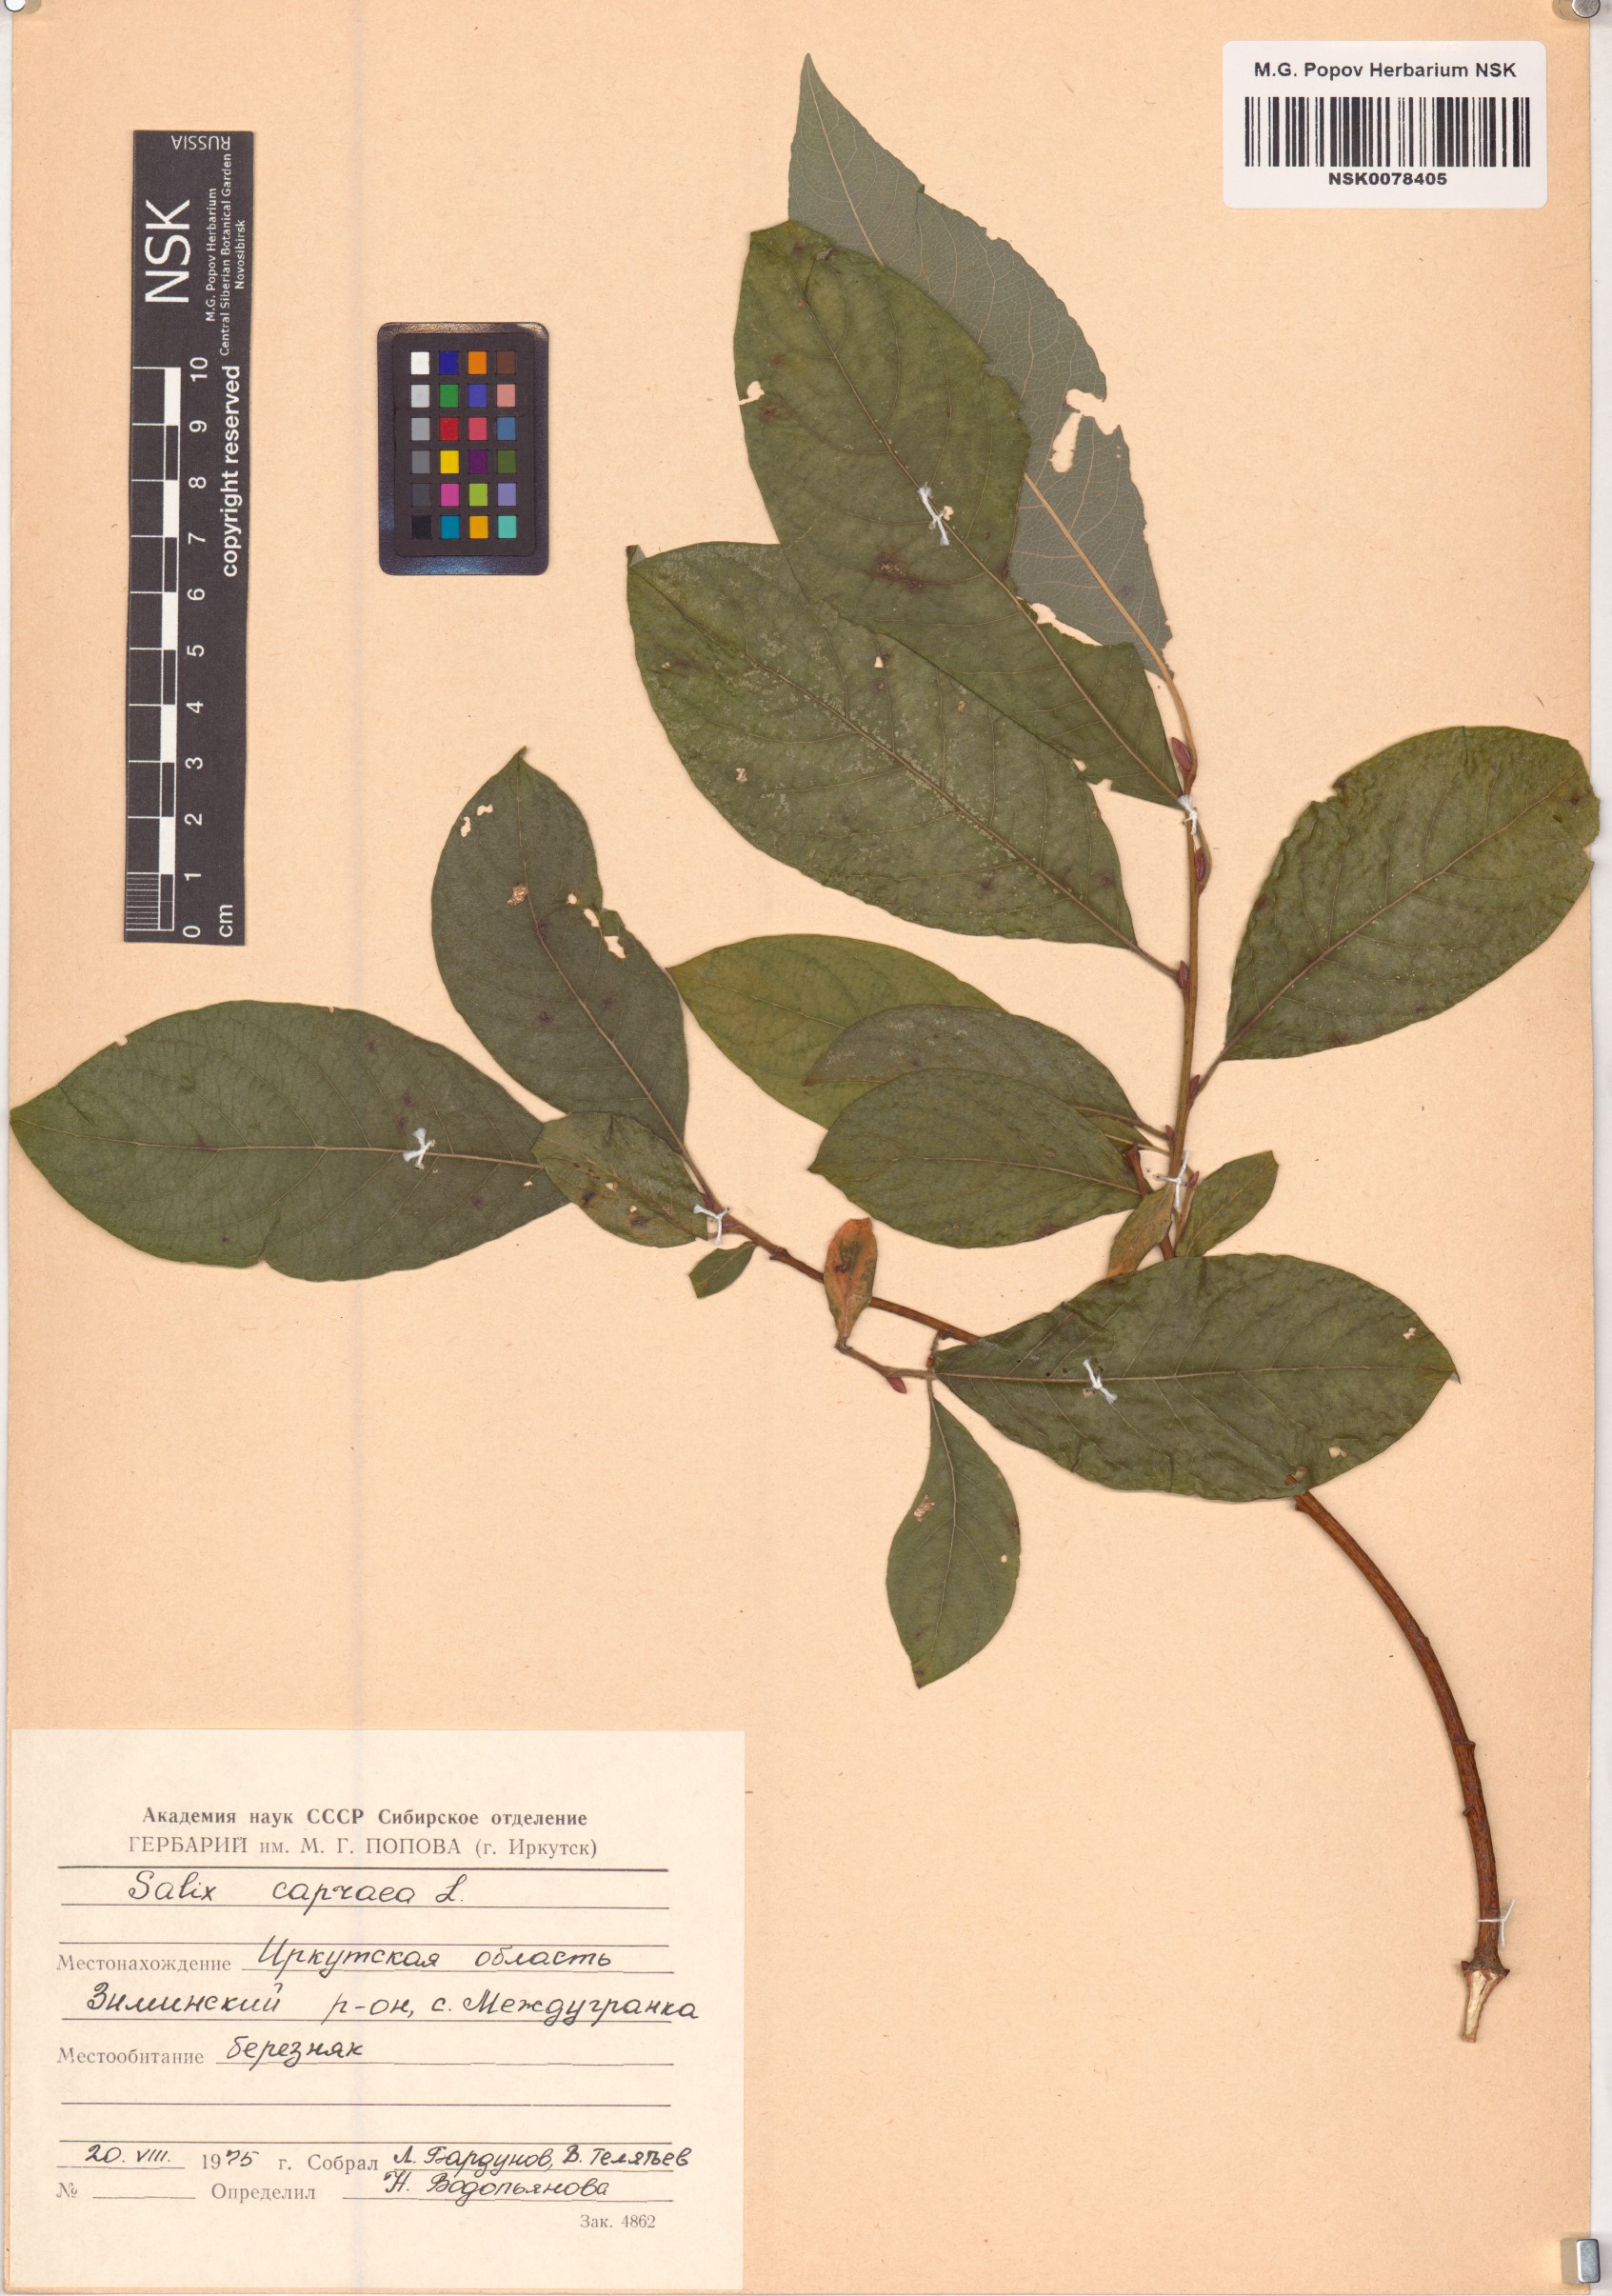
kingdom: Plantae
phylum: Tracheophyta
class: Magnoliopsida
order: Malpighiales
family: Salicaceae
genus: Salix
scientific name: Salix caprea
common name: Goat willow
